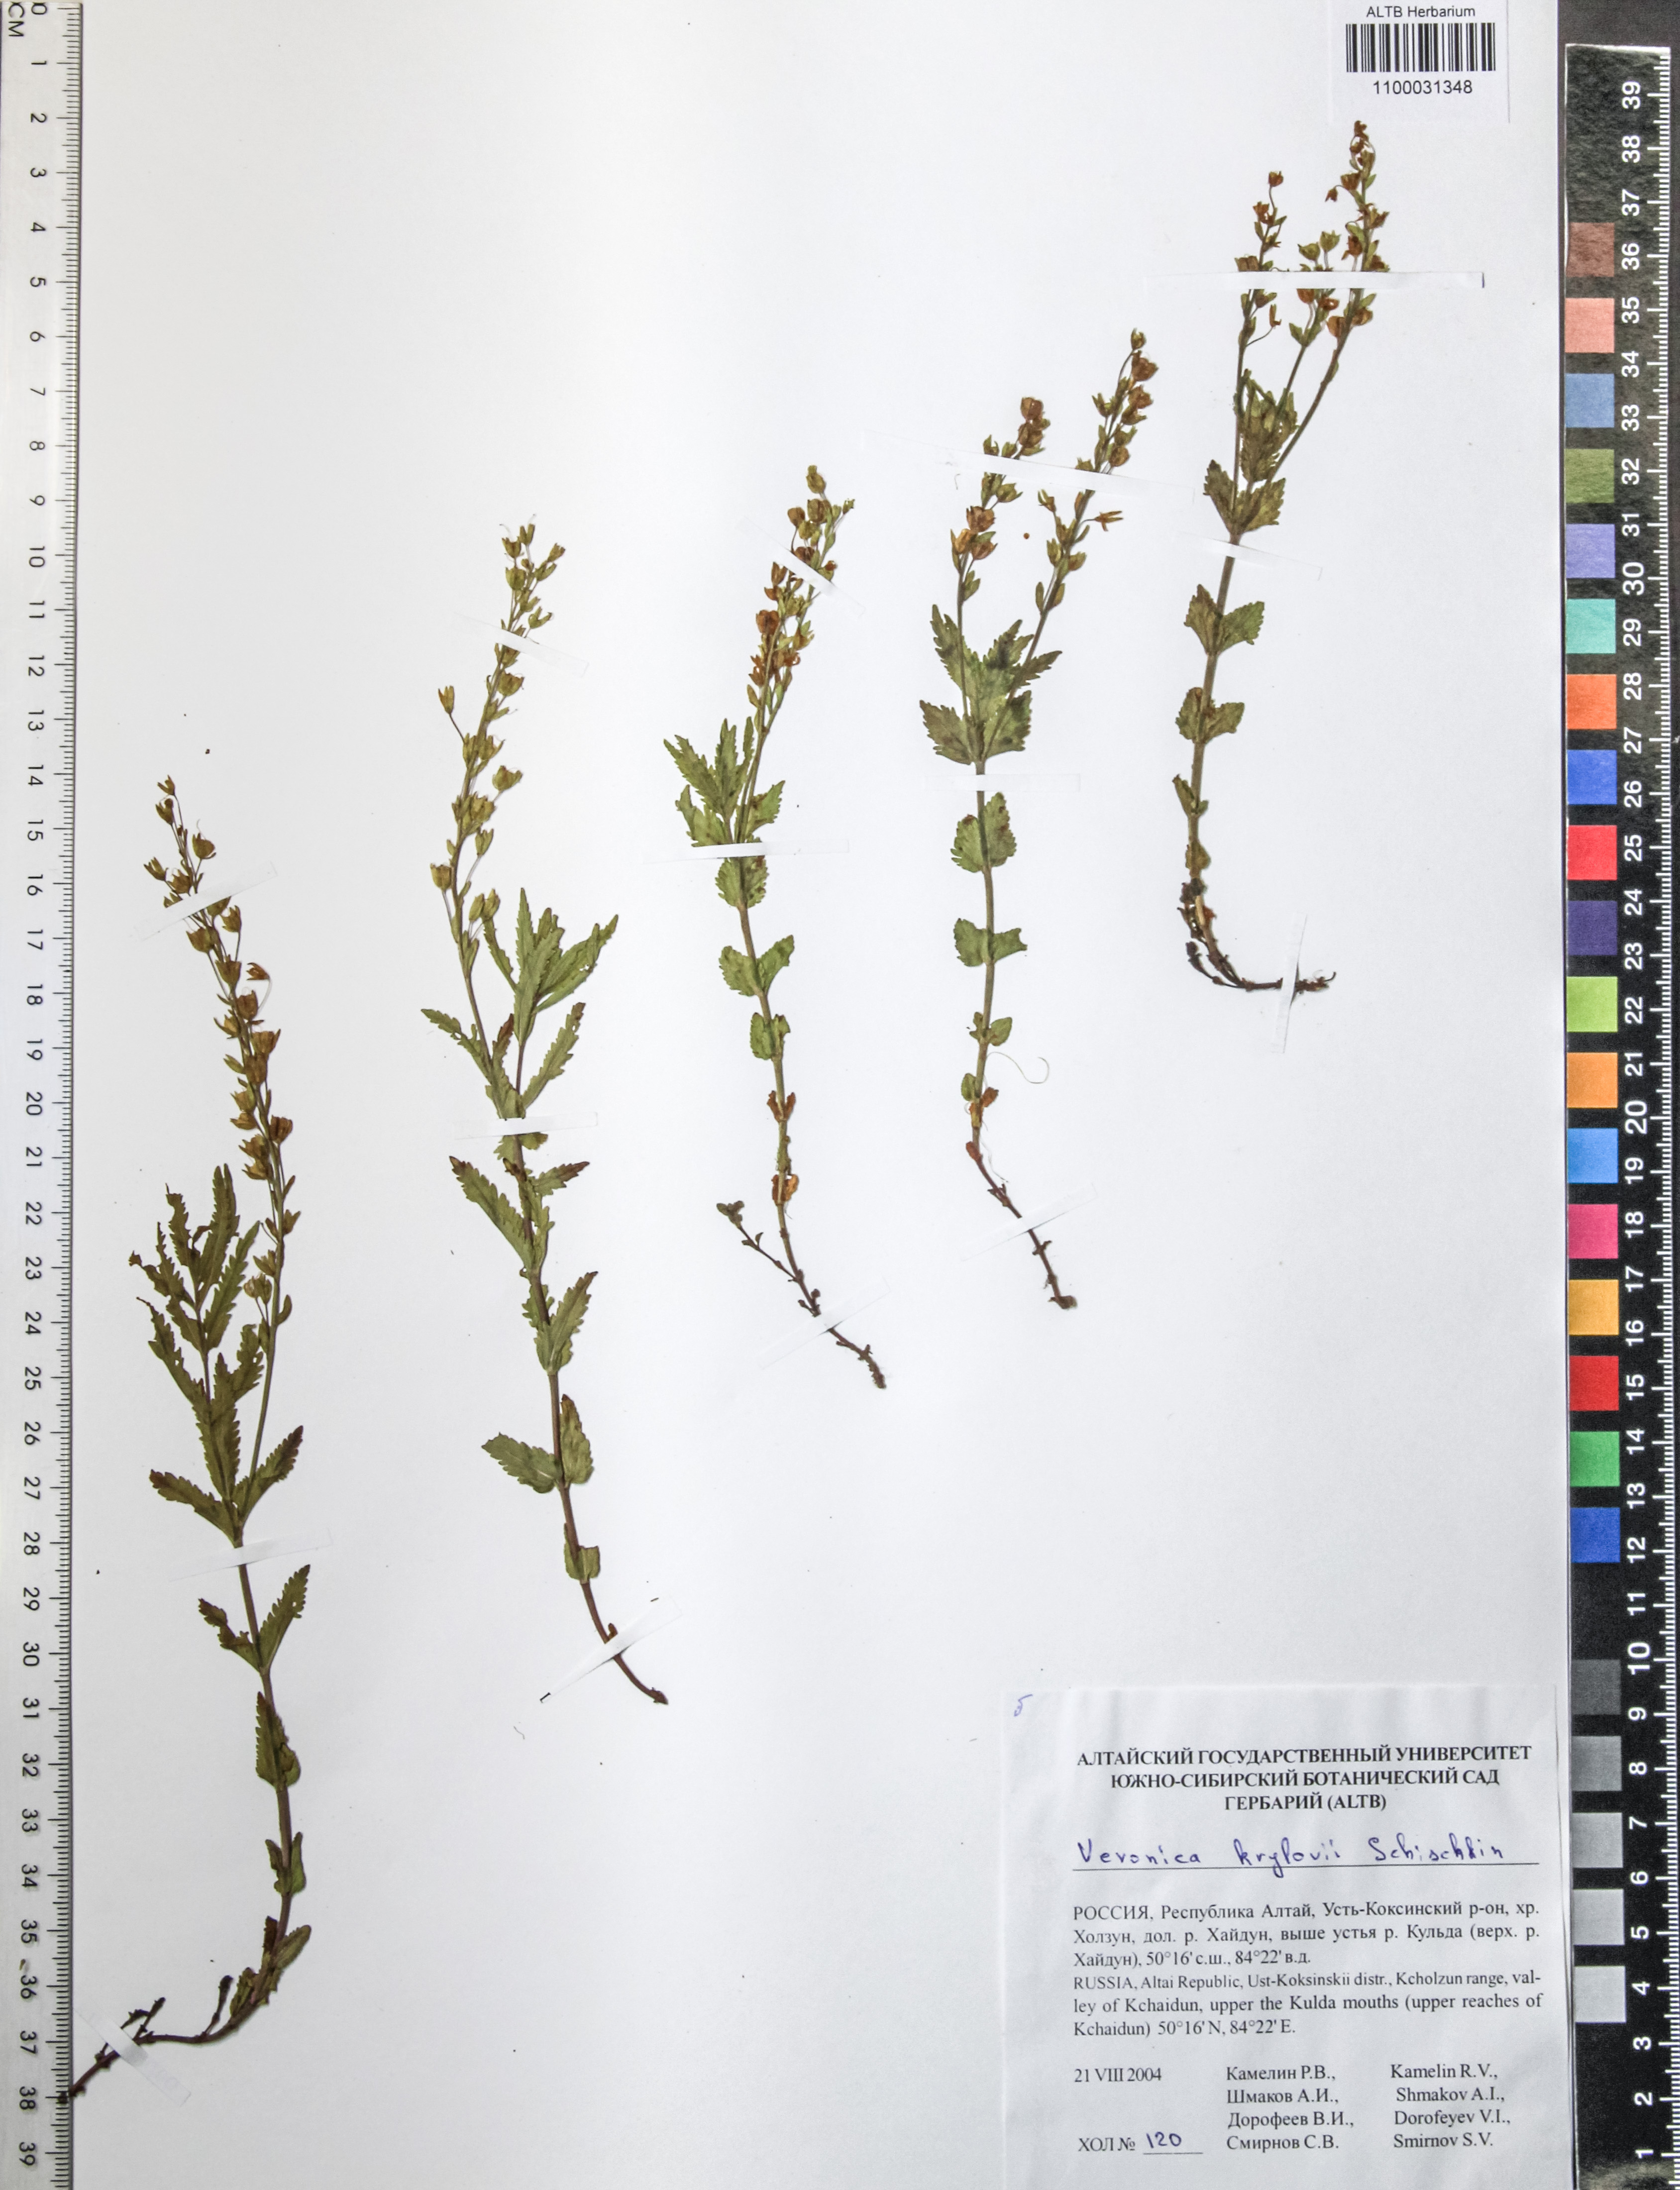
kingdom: Plantae
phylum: Tracheophyta
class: Magnoliopsida
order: Lamiales
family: Plantaginaceae
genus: Veronica
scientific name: Veronica krylovii
